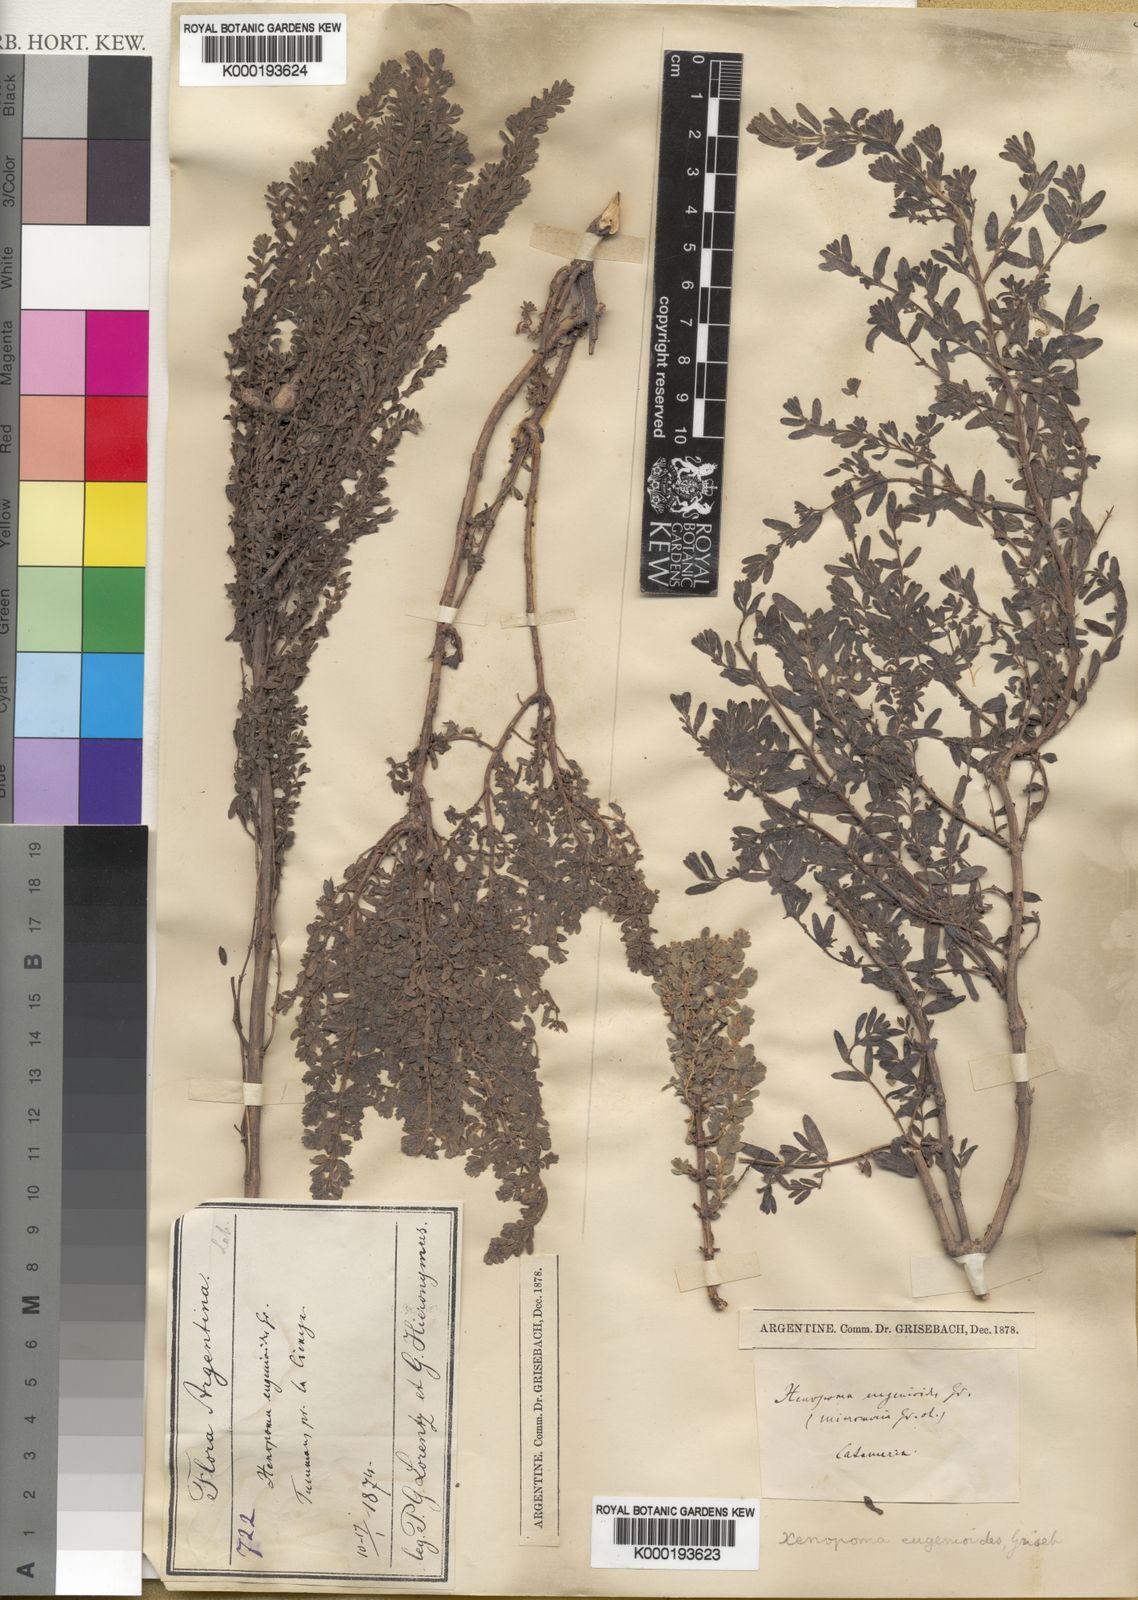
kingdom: Plantae
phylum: Tracheophyta
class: Magnoliopsida
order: Lamiales
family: Lamiaceae
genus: Clinopodium
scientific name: Clinopodium gilliesii
